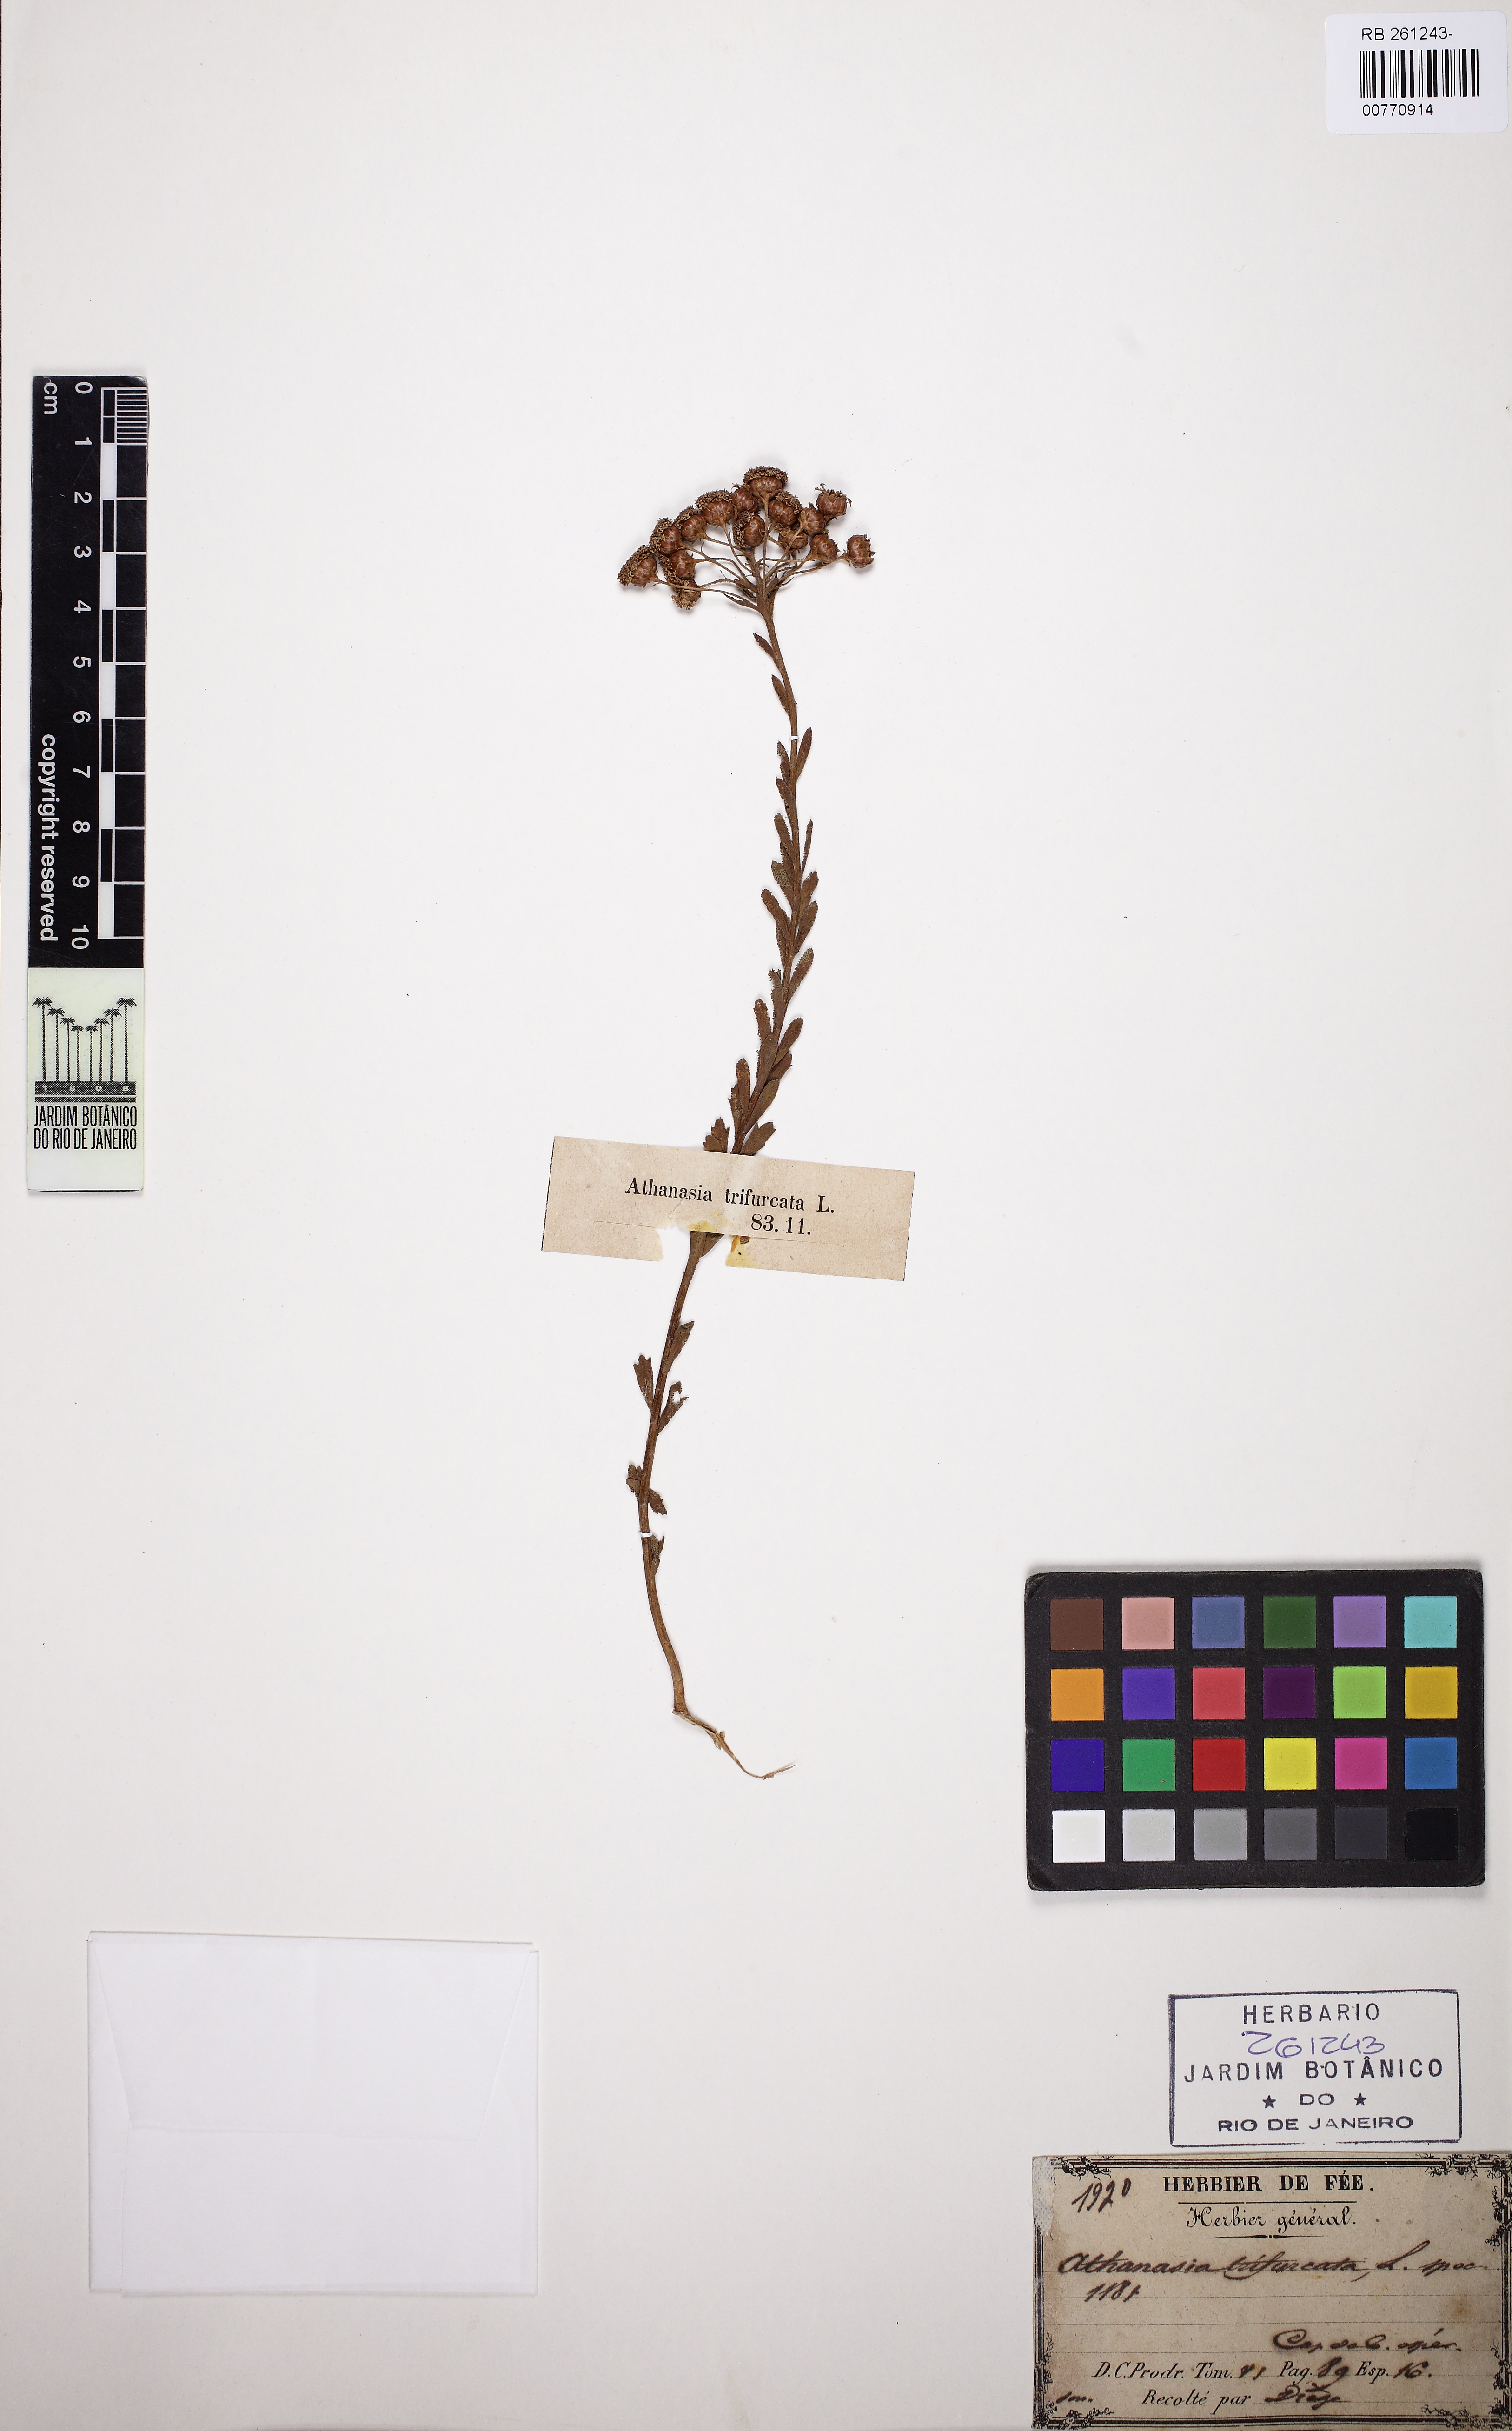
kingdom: Plantae
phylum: Tracheophyta
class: Magnoliopsida
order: Asterales
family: Asteraceae
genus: Athanasia
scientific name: Athanasia trifurcata
